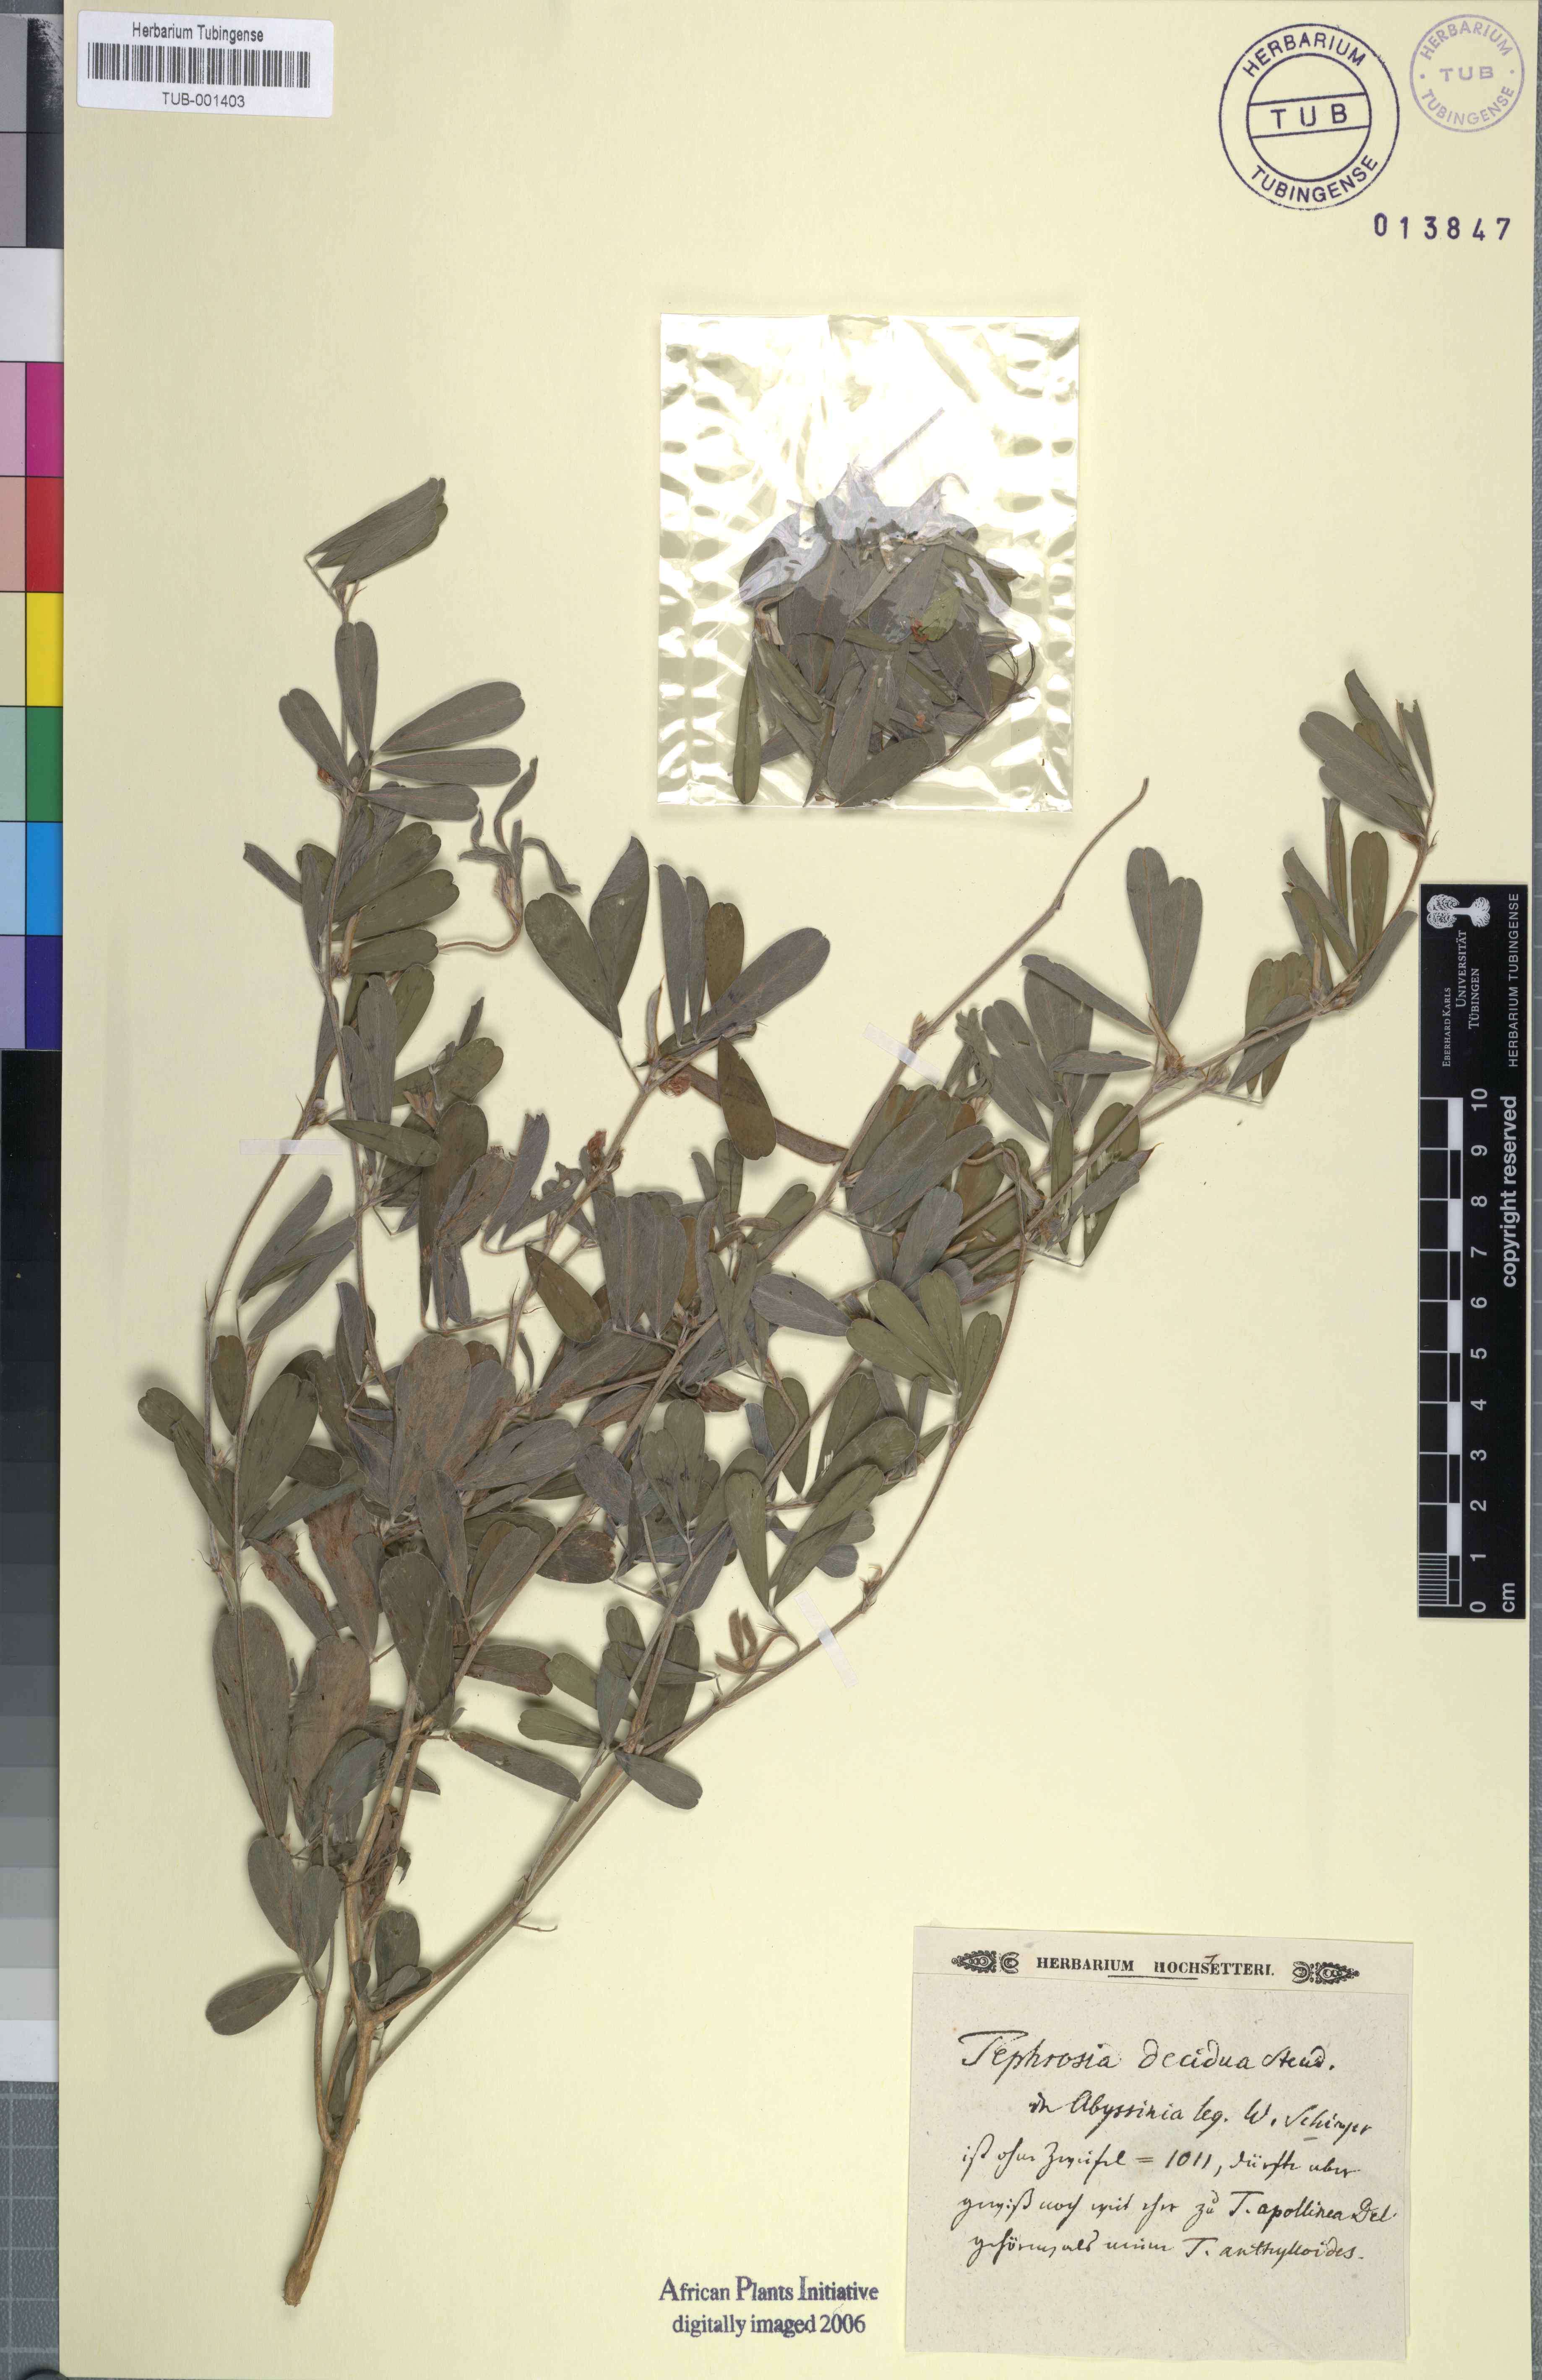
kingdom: Plantae
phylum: Tracheophyta
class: Magnoliopsida
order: Fabales
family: Fabaceae
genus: Tephrosia
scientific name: Tephrosia subtriflora
